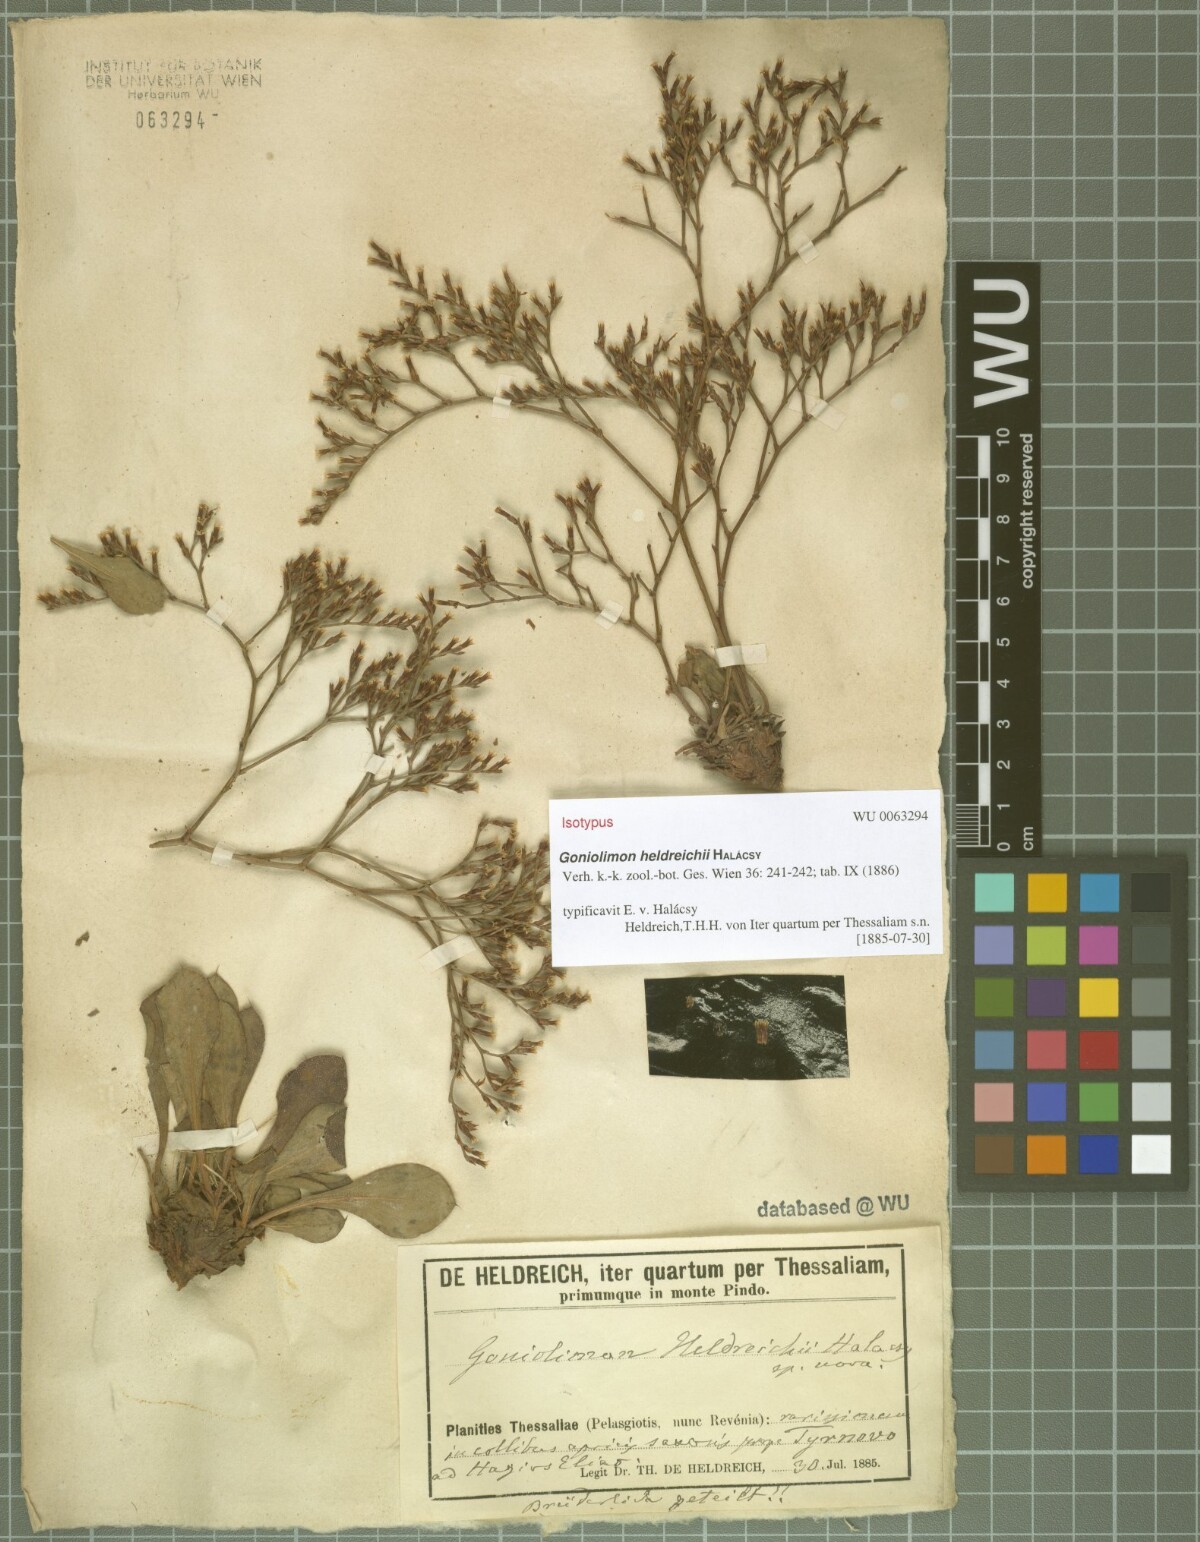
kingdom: Plantae
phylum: Tracheophyta
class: Magnoliopsida
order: Caryophyllales
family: Plumbaginaceae
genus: Goniolimon
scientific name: Goniolimon heldreichii
